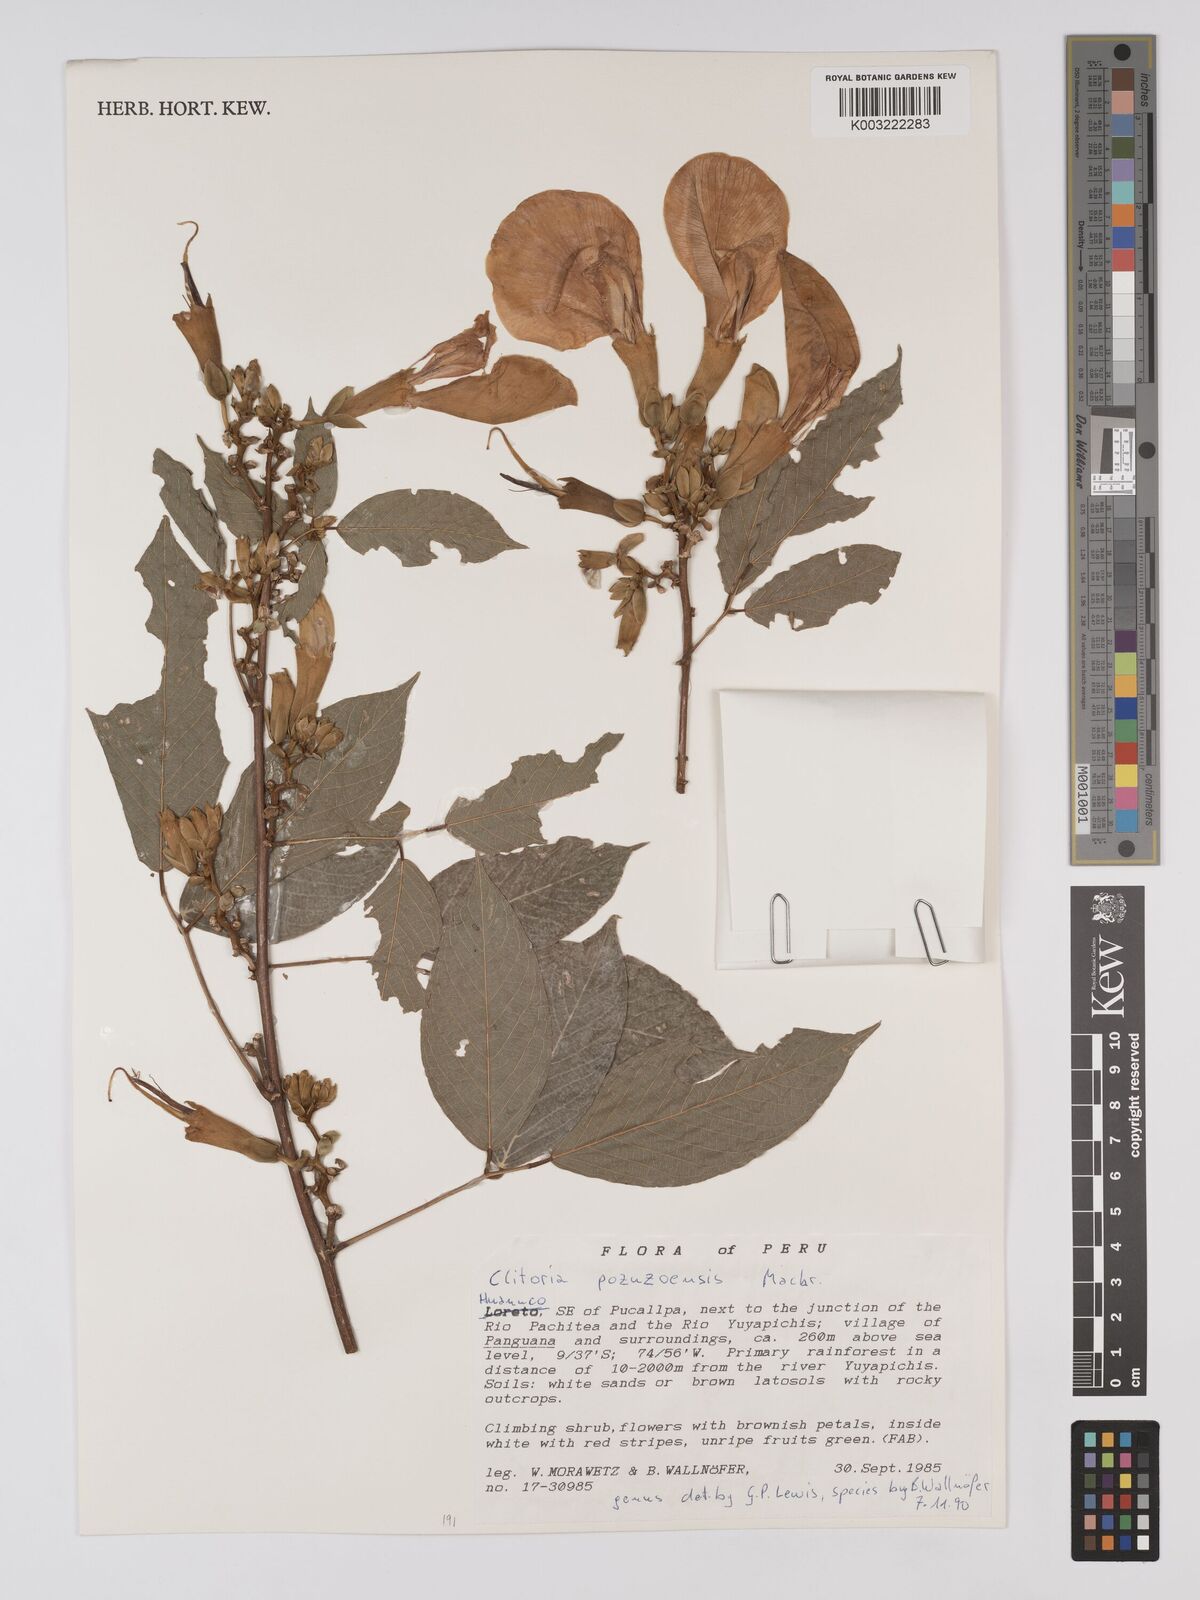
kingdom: Plantae
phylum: Tracheophyta
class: Magnoliopsida
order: Fabales
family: Fabaceae
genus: Clitoria
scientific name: Clitoria pozuzoensis
